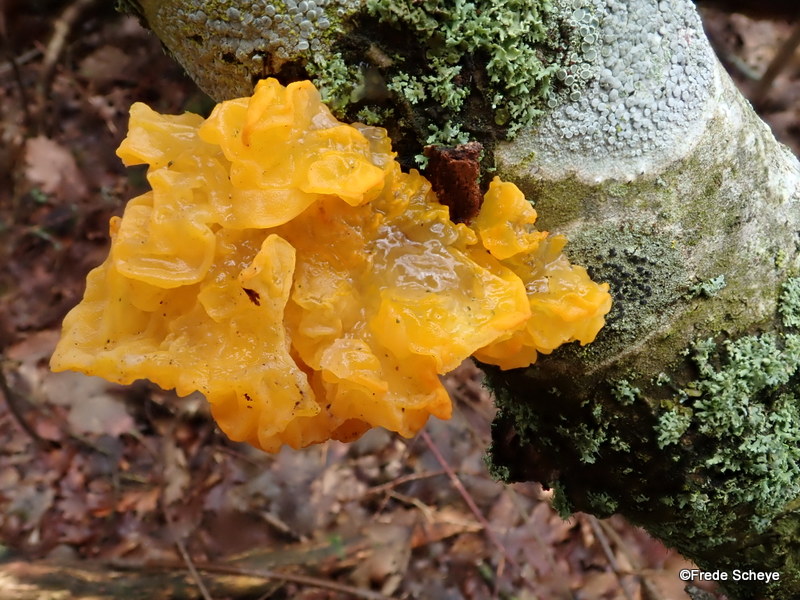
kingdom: Fungi
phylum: Basidiomycota
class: Tremellomycetes
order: Tremellales
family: Tremellaceae
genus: Tremella
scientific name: Tremella mesenterica
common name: gul bævresvamp
